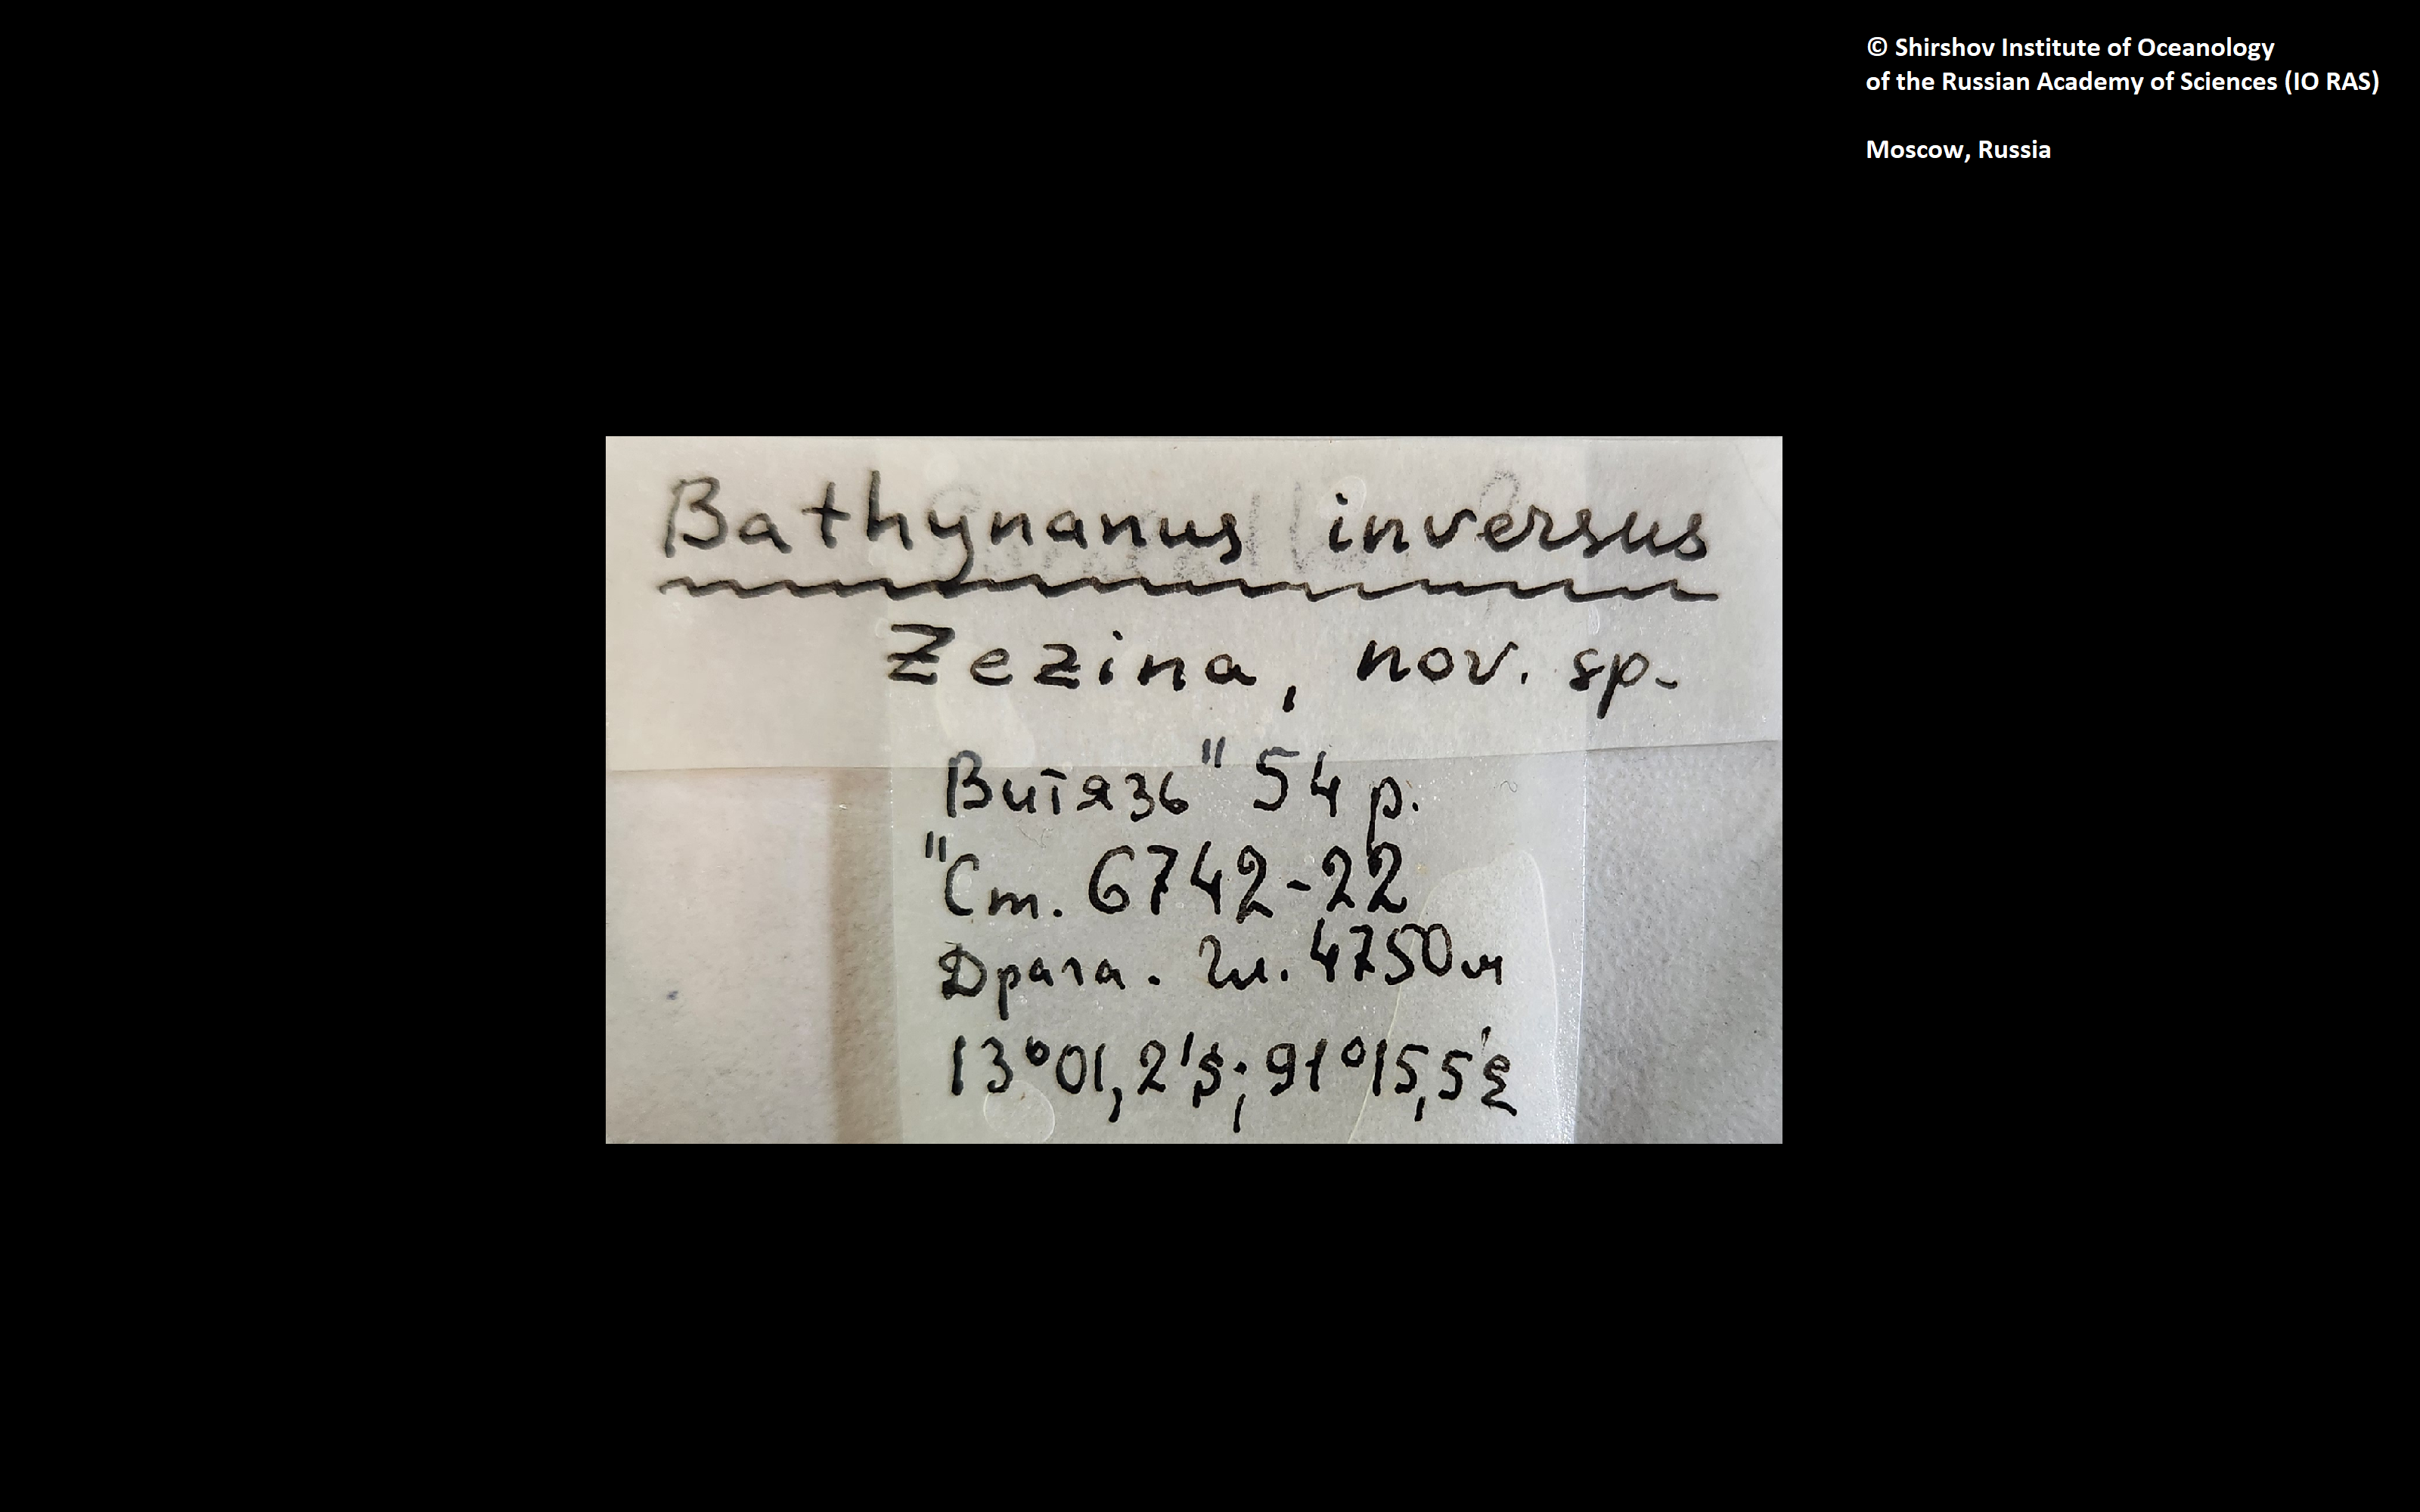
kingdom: Animalia
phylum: Brachiopoda
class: Rhynchonellata
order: Terebratulida
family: Chlidonophoridae
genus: Bathynanus
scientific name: Bathynanus inversus
